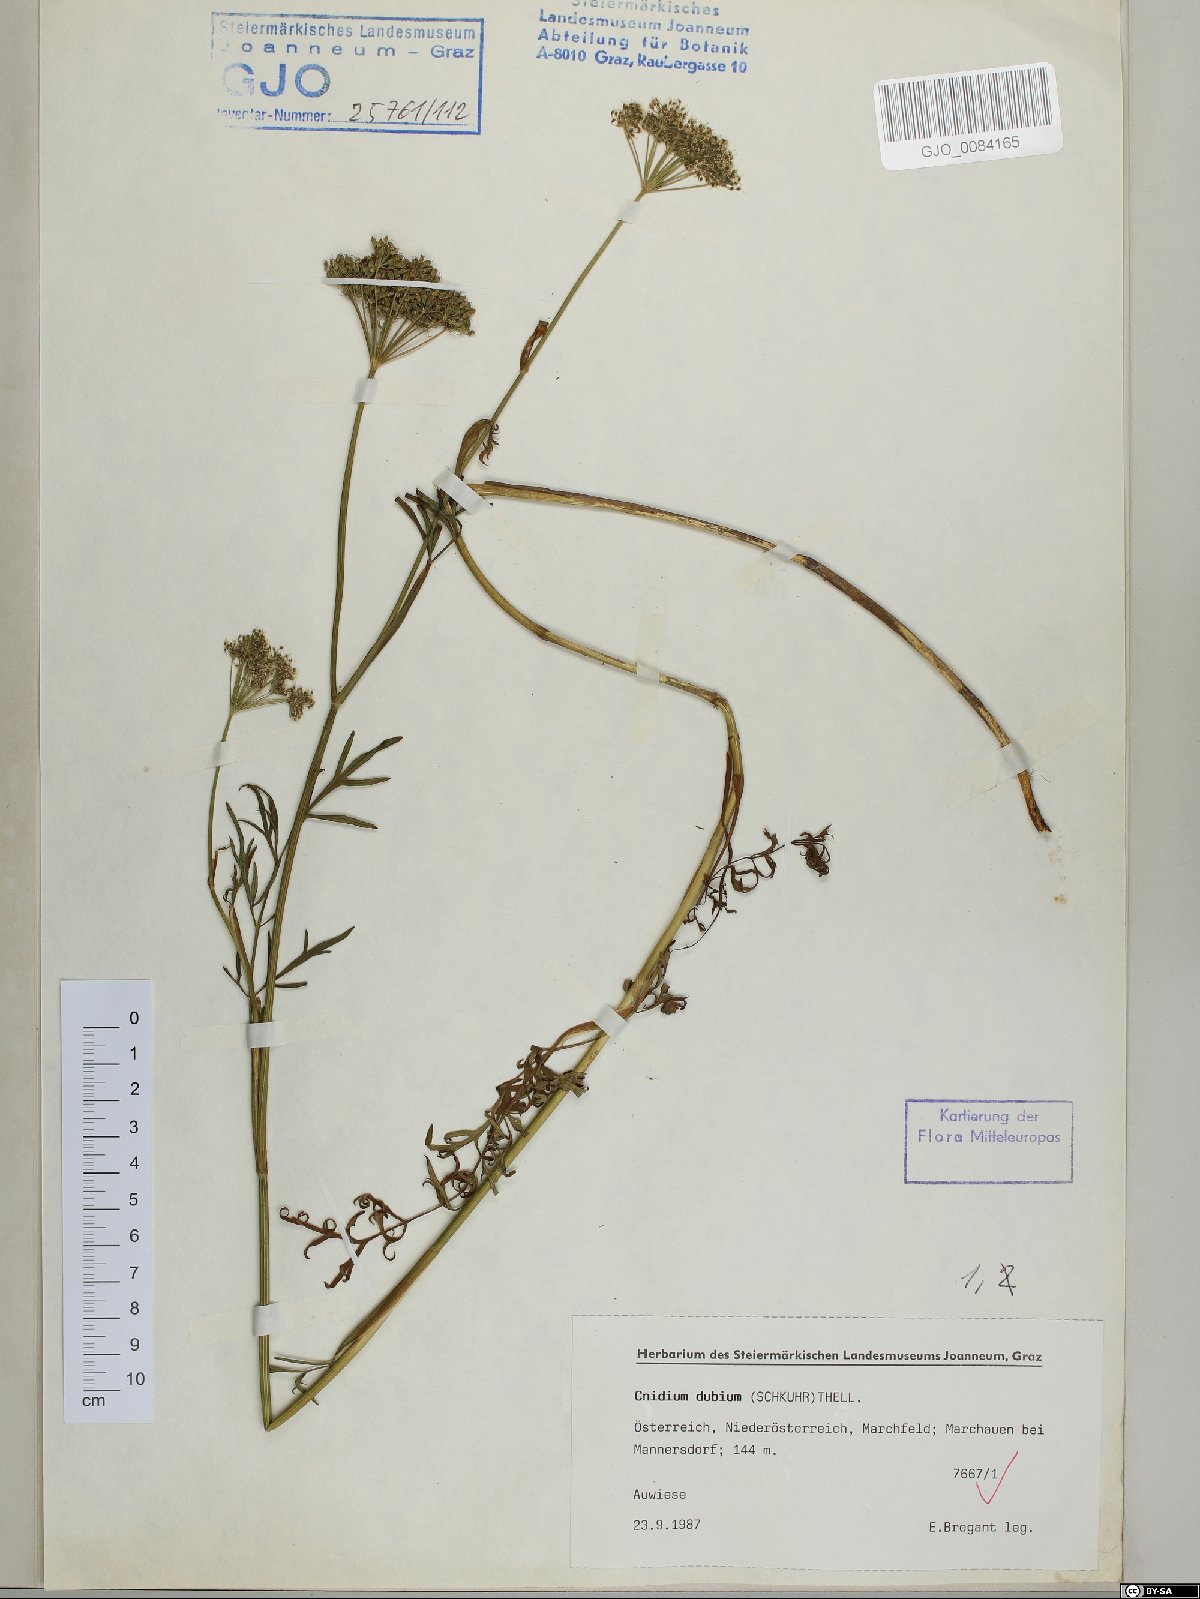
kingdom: Plantae
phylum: Tracheophyta
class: Magnoliopsida
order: Apiales
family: Apiaceae
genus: Kadenia
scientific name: Kadenia dubia
